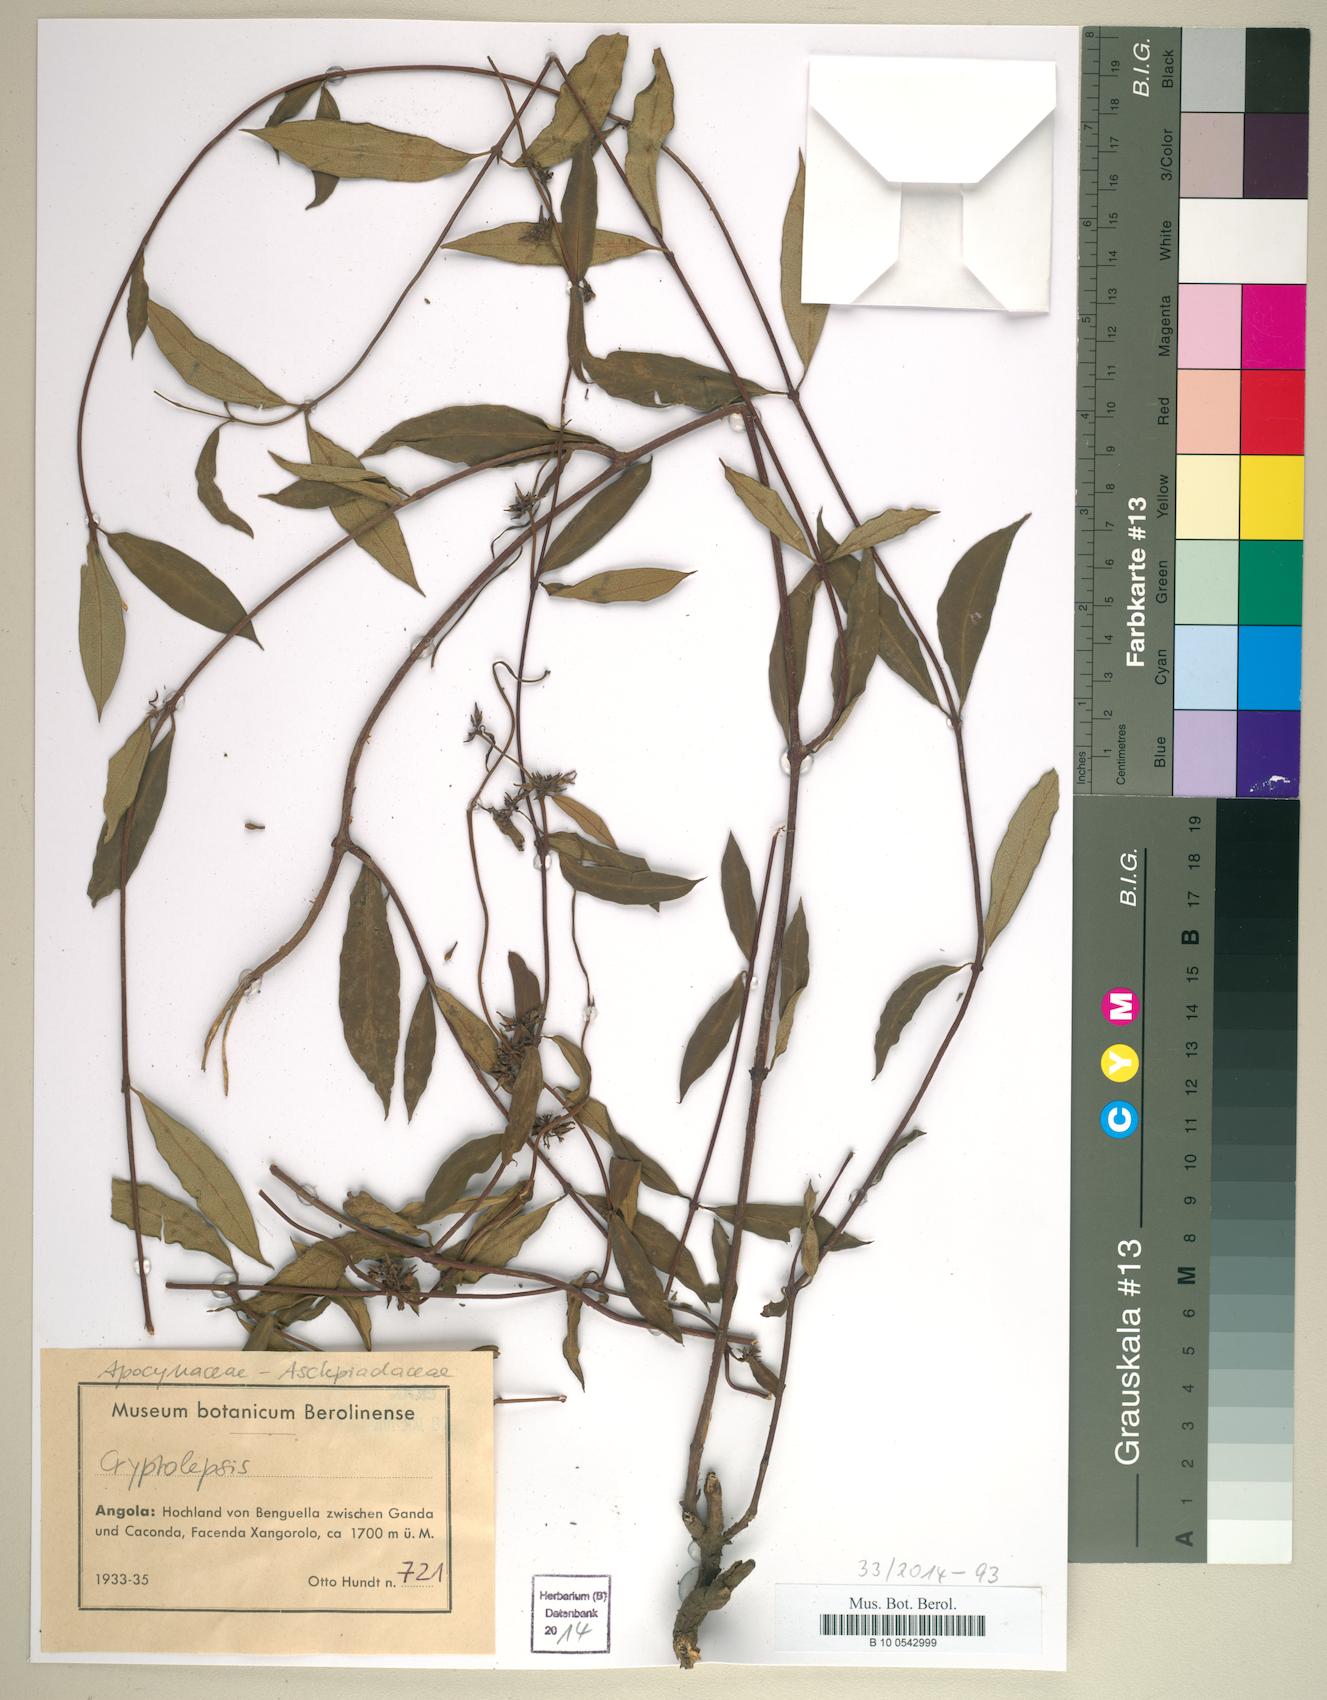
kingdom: Plantae
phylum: Tracheophyta
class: Magnoliopsida
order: Gentianales
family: Apocynaceae
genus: Cryptolepis
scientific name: Cryptolepis
